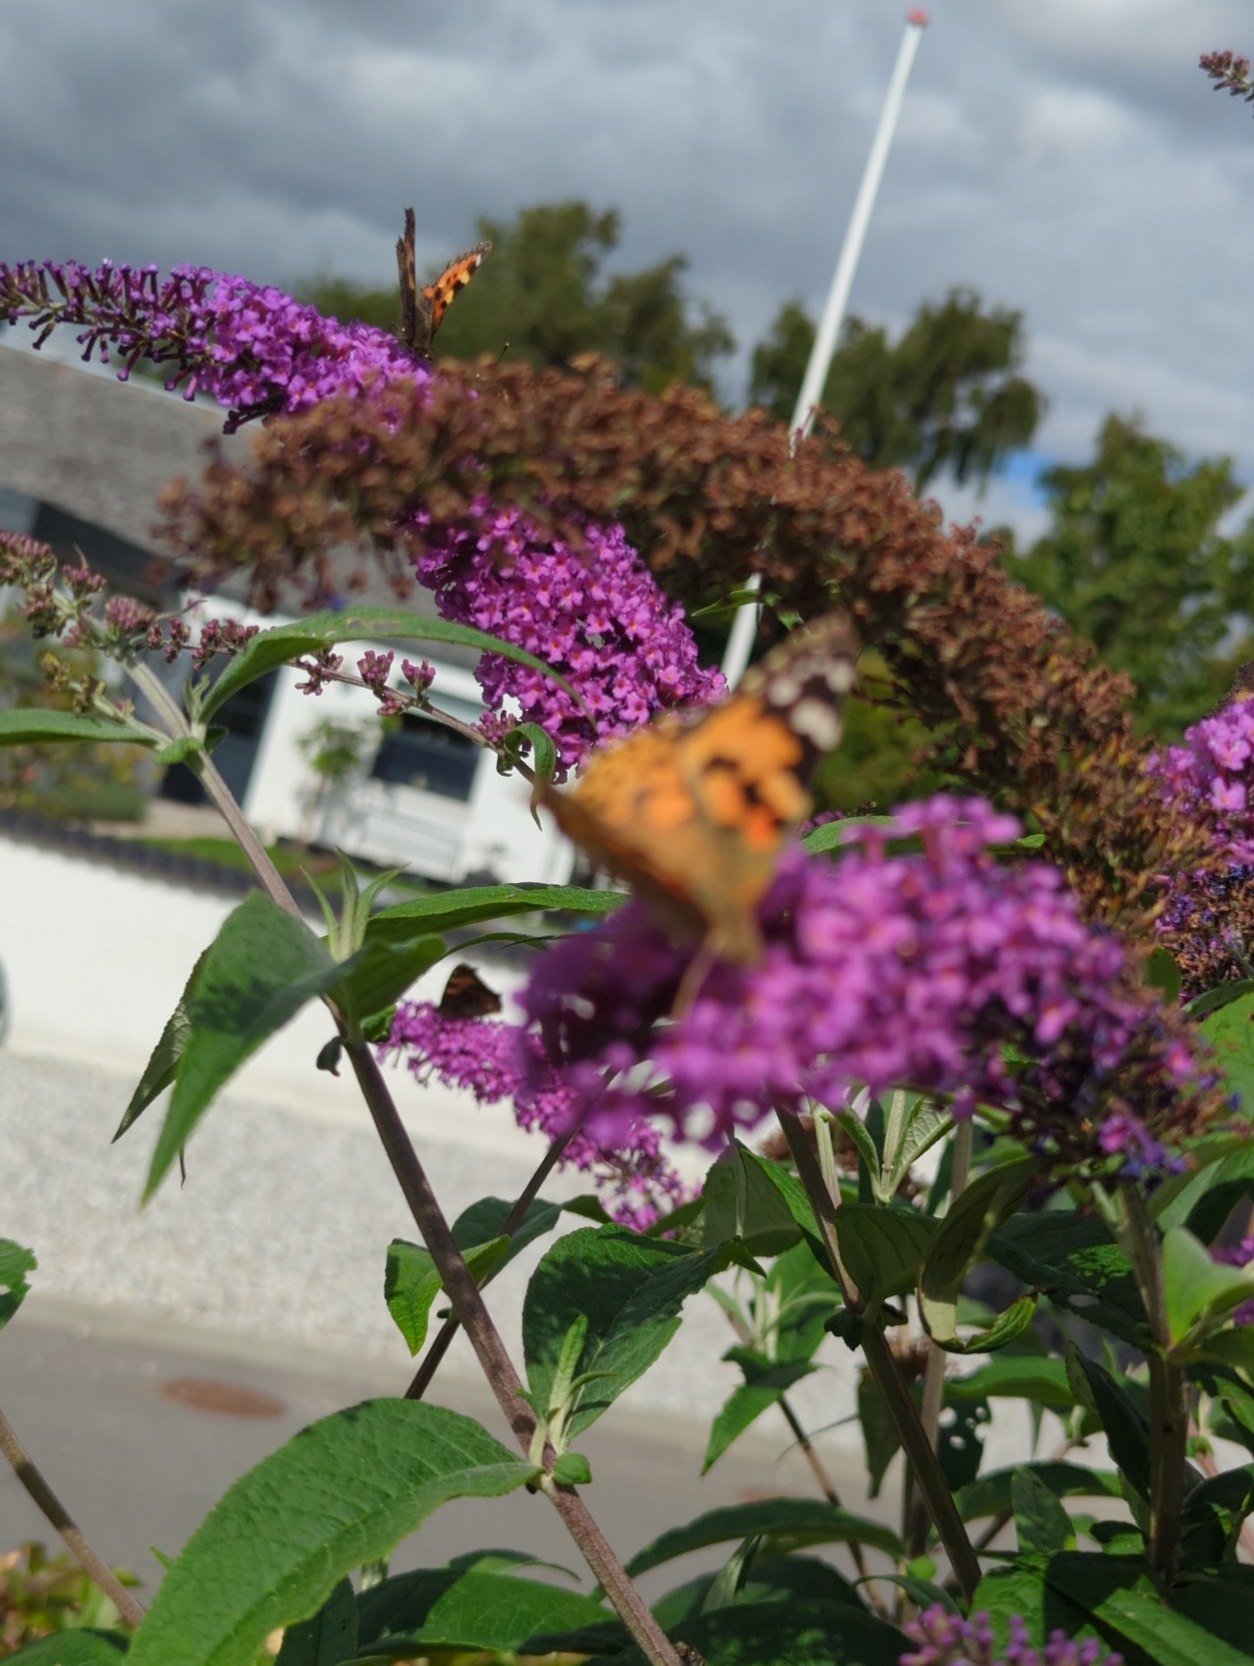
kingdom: Animalia
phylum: Arthropoda
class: Insecta
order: Lepidoptera
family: Nymphalidae
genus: Vanessa
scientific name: Vanessa cardui
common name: Tidselsommerfugl
